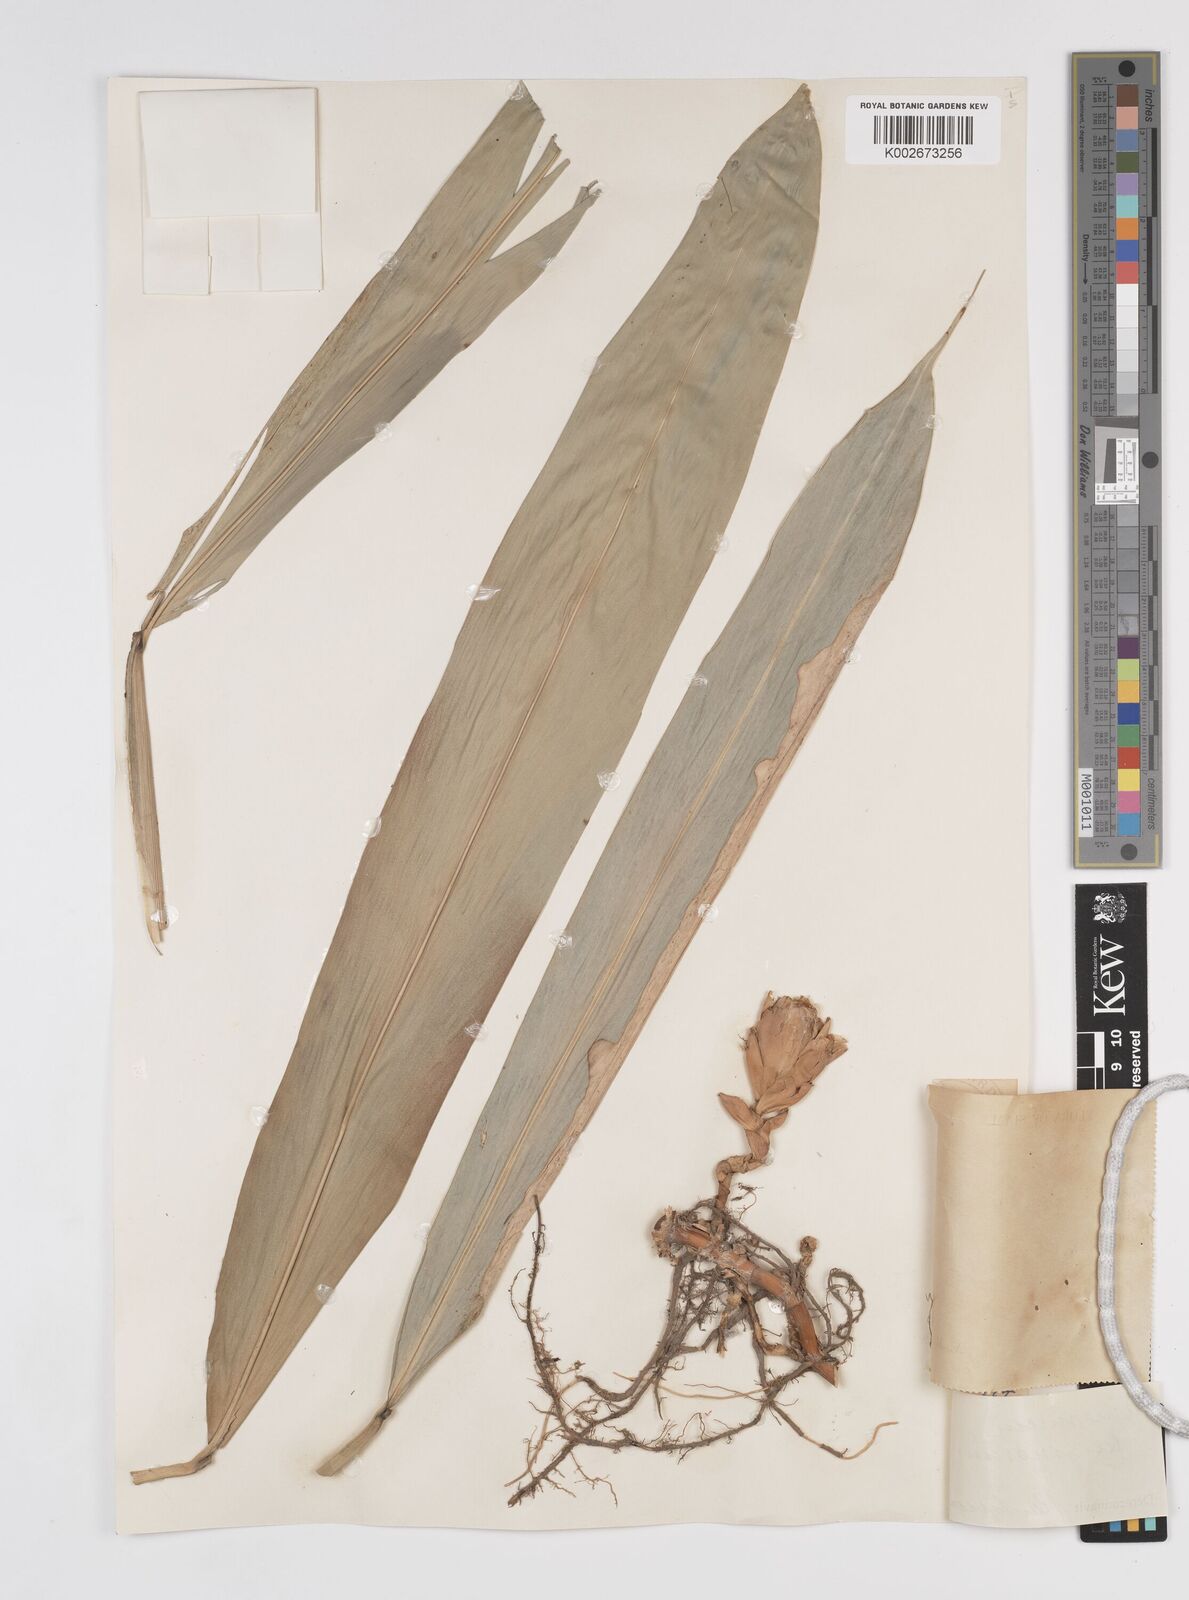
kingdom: Plantae
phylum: Tracheophyta
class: Liliopsida
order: Zingiberales
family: Zingiberaceae
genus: Wurfbainia
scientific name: Wurfbainia uliginosa
